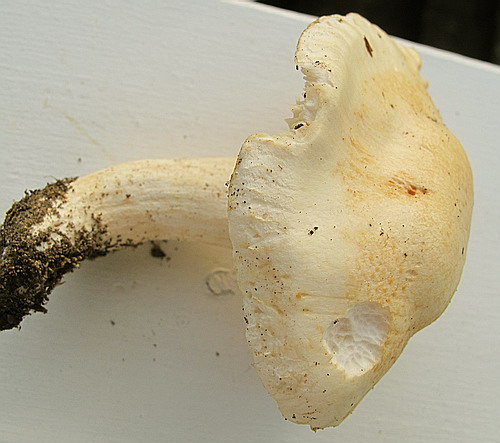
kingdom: Fungi
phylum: Basidiomycota
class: Agaricomycetes
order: Agaricales
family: Hygrophoraceae
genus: Hygrophorus
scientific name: Hygrophorus penarius
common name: spiselig sneglehat
